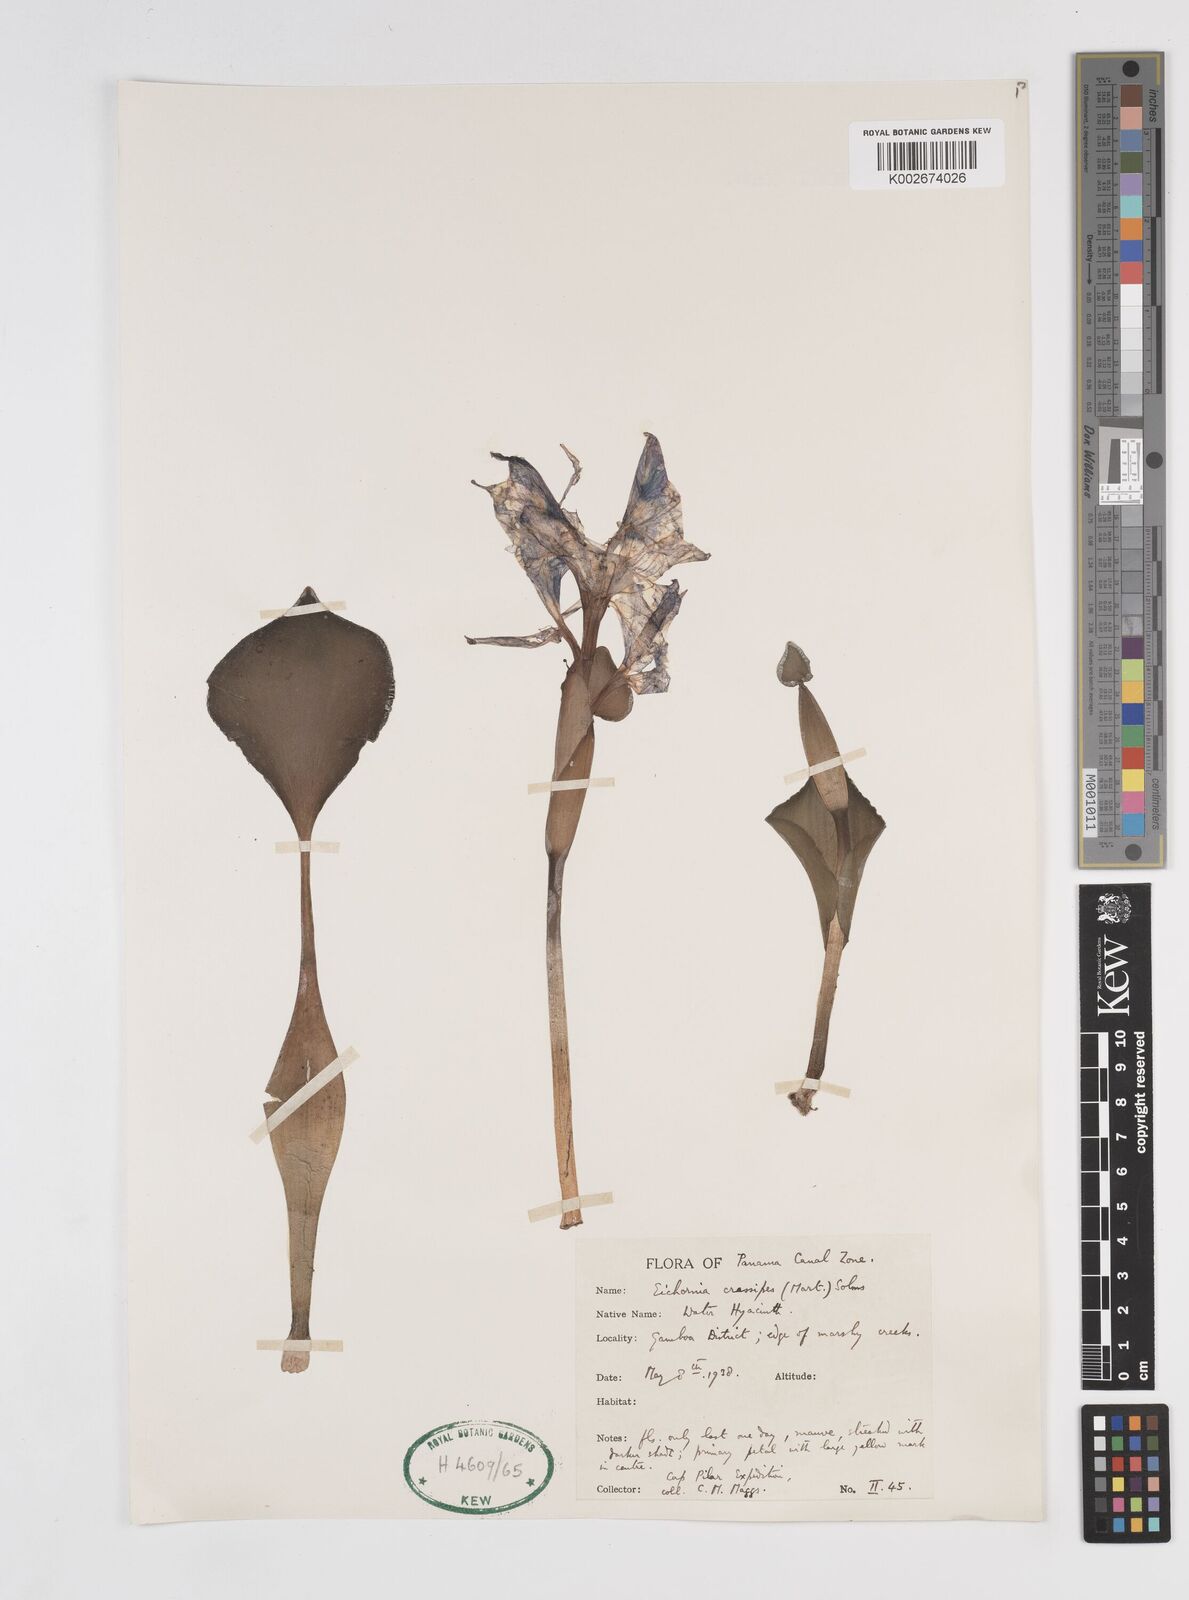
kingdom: Plantae
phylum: Tracheophyta
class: Liliopsida
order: Commelinales
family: Pontederiaceae
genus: Pontederia
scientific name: Pontederia crassipes
